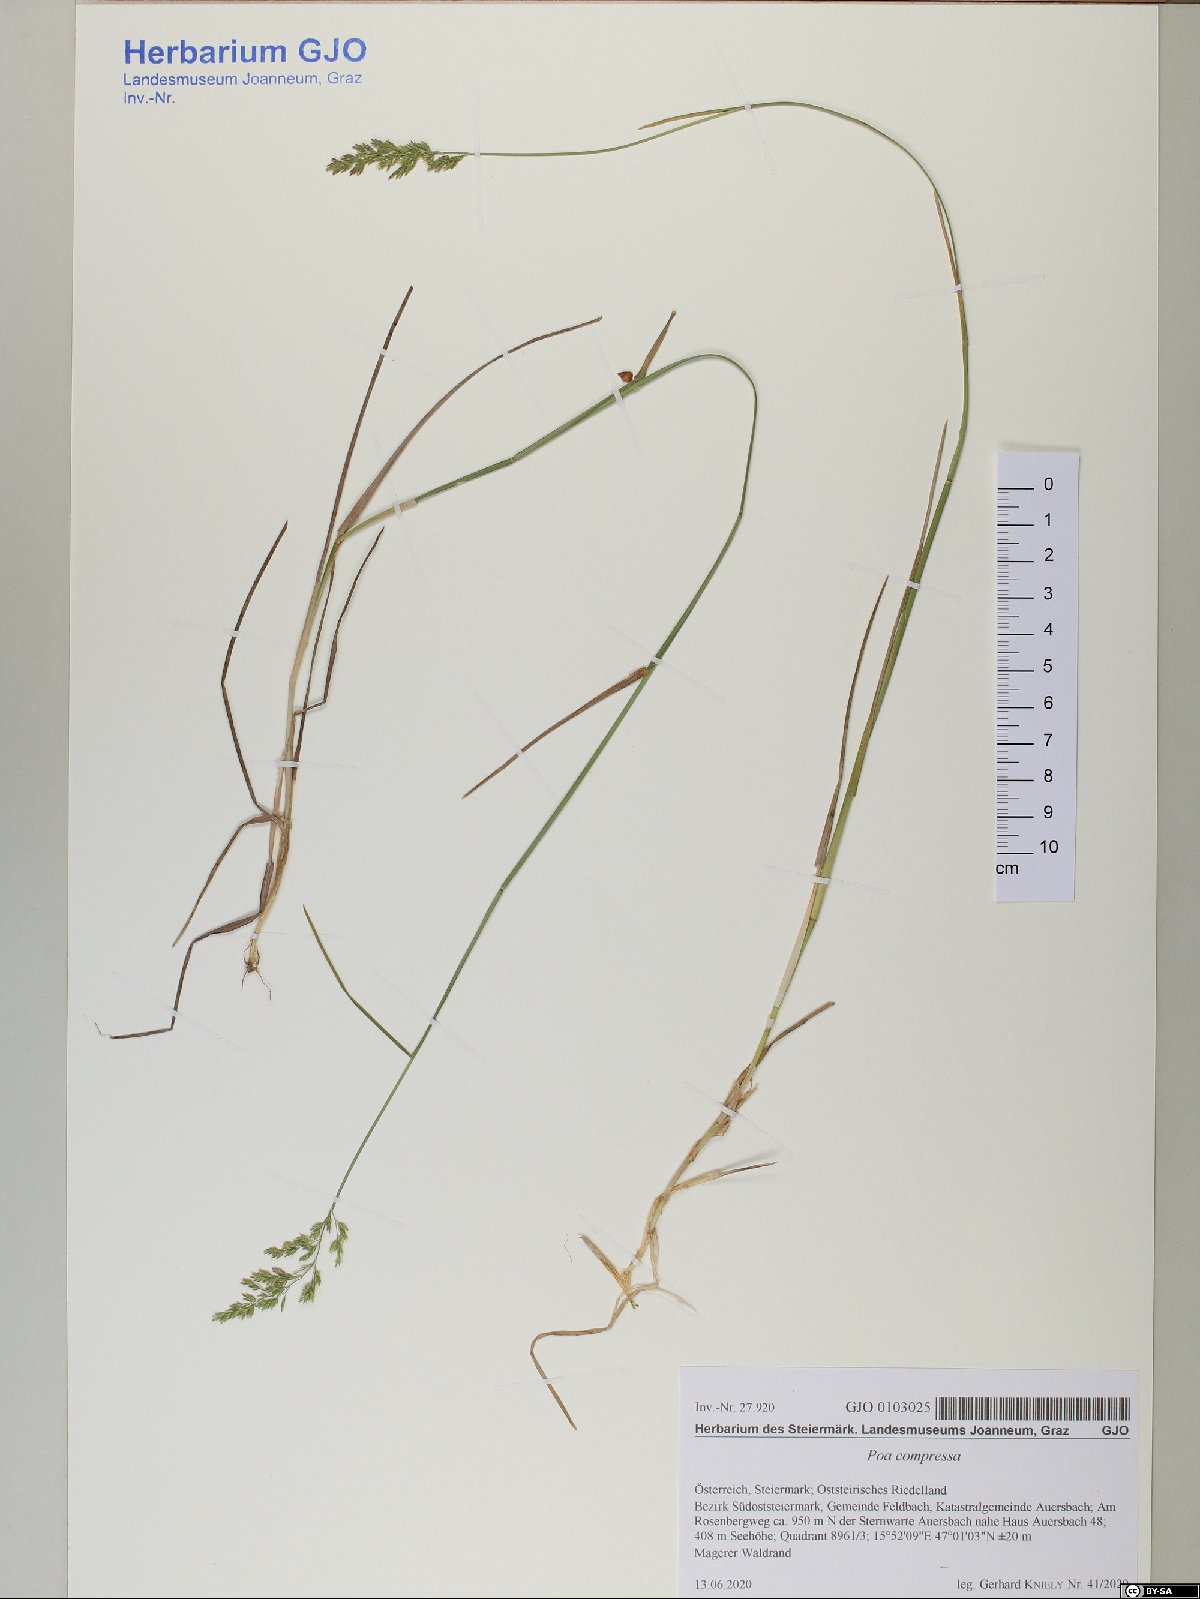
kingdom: Plantae
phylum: Tracheophyta
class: Liliopsida
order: Poales
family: Poaceae
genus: Poa
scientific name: Poa compressa
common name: Canada bluegrass
